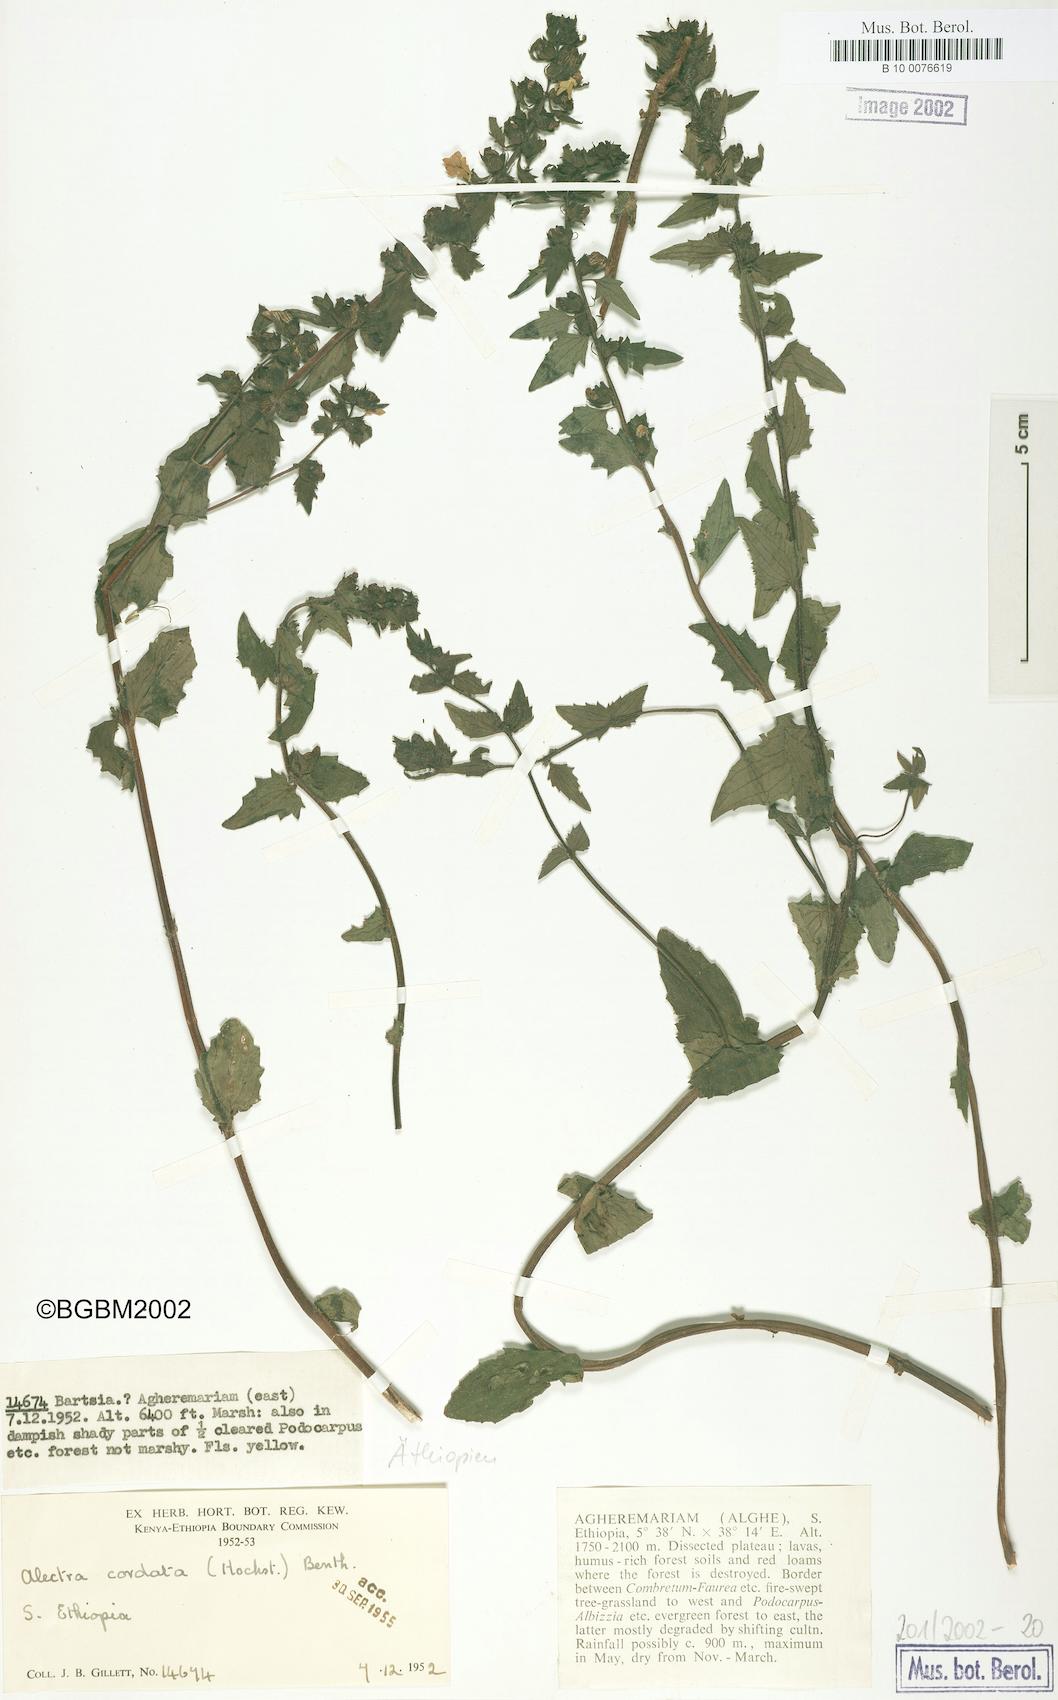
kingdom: Plantae
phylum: Tracheophyta
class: Magnoliopsida
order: Lamiales
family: Orobanchaceae
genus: Alectra
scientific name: Alectra sessiliflora
